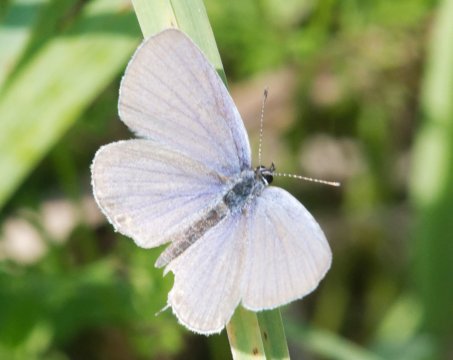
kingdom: Animalia
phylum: Arthropoda
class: Insecta
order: Lepidoptera
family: Lycaenidae
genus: Elkalyce
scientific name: Elkalyce comyntas
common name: Eastern Tailed-Blue
